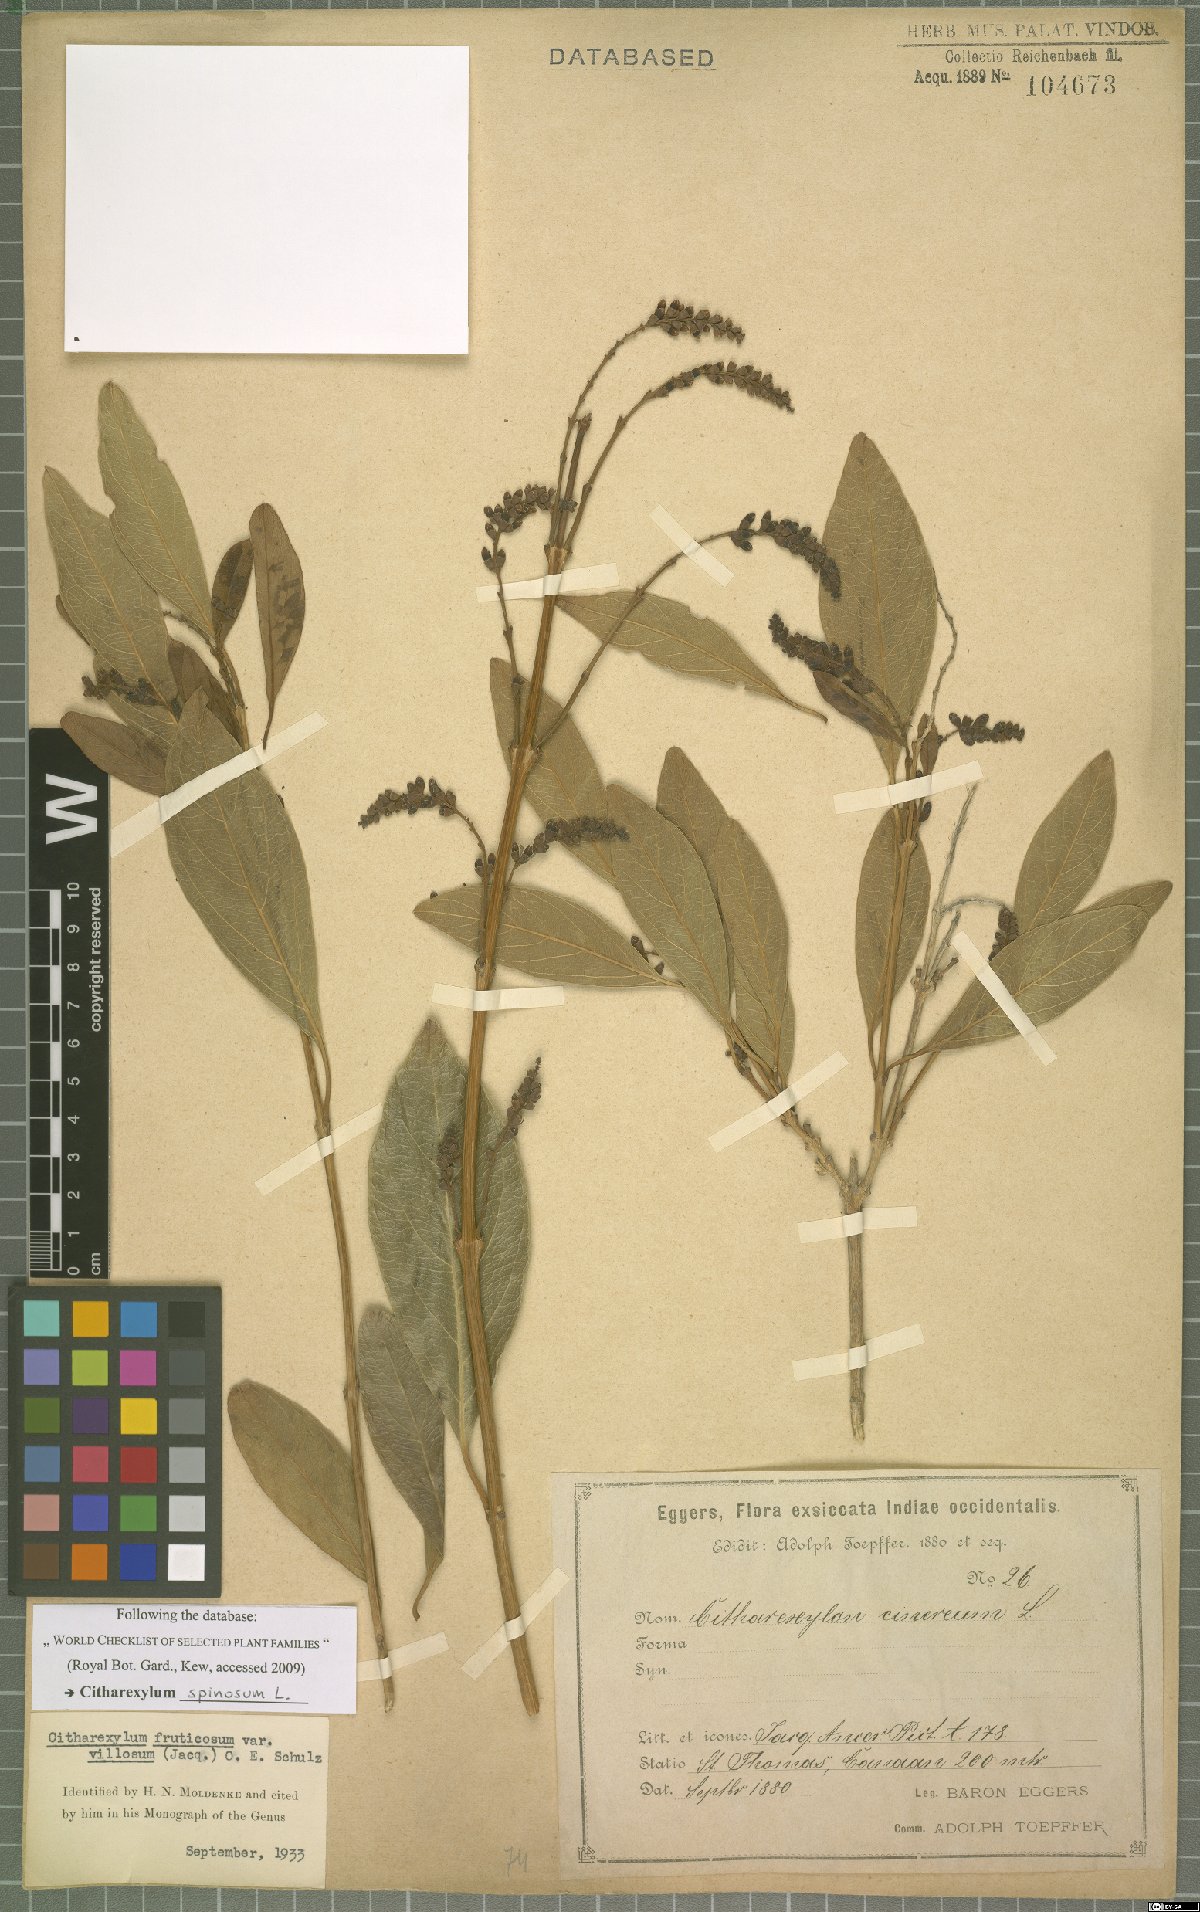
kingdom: Plantae
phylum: Tracheophyta
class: Magnoliopsida
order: Lamiales
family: Verbenaceae
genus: Citharexylum
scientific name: Citharexylum spinosum
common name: Fiddlewood
